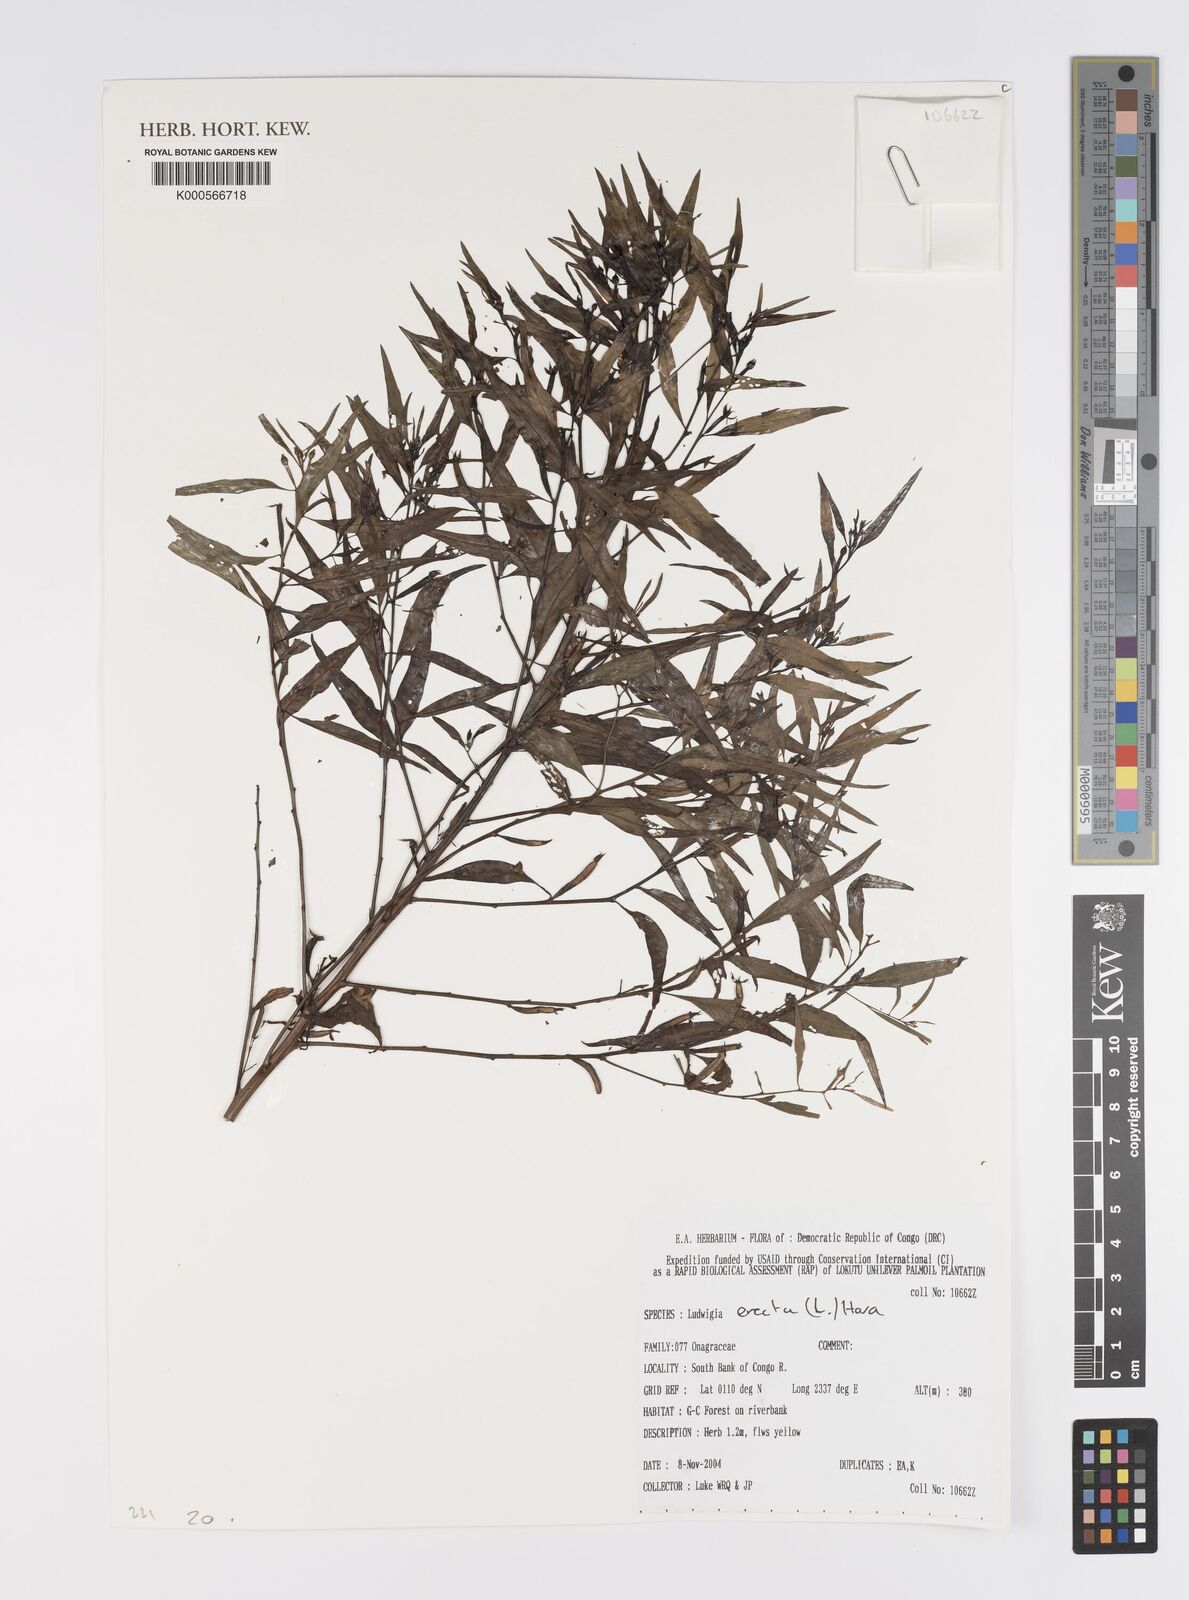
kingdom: Plantae
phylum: Tracheophyta
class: Magnoliopsida
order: Myrtales
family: Onagraceae
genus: Ludwigia
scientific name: Ludwigia
